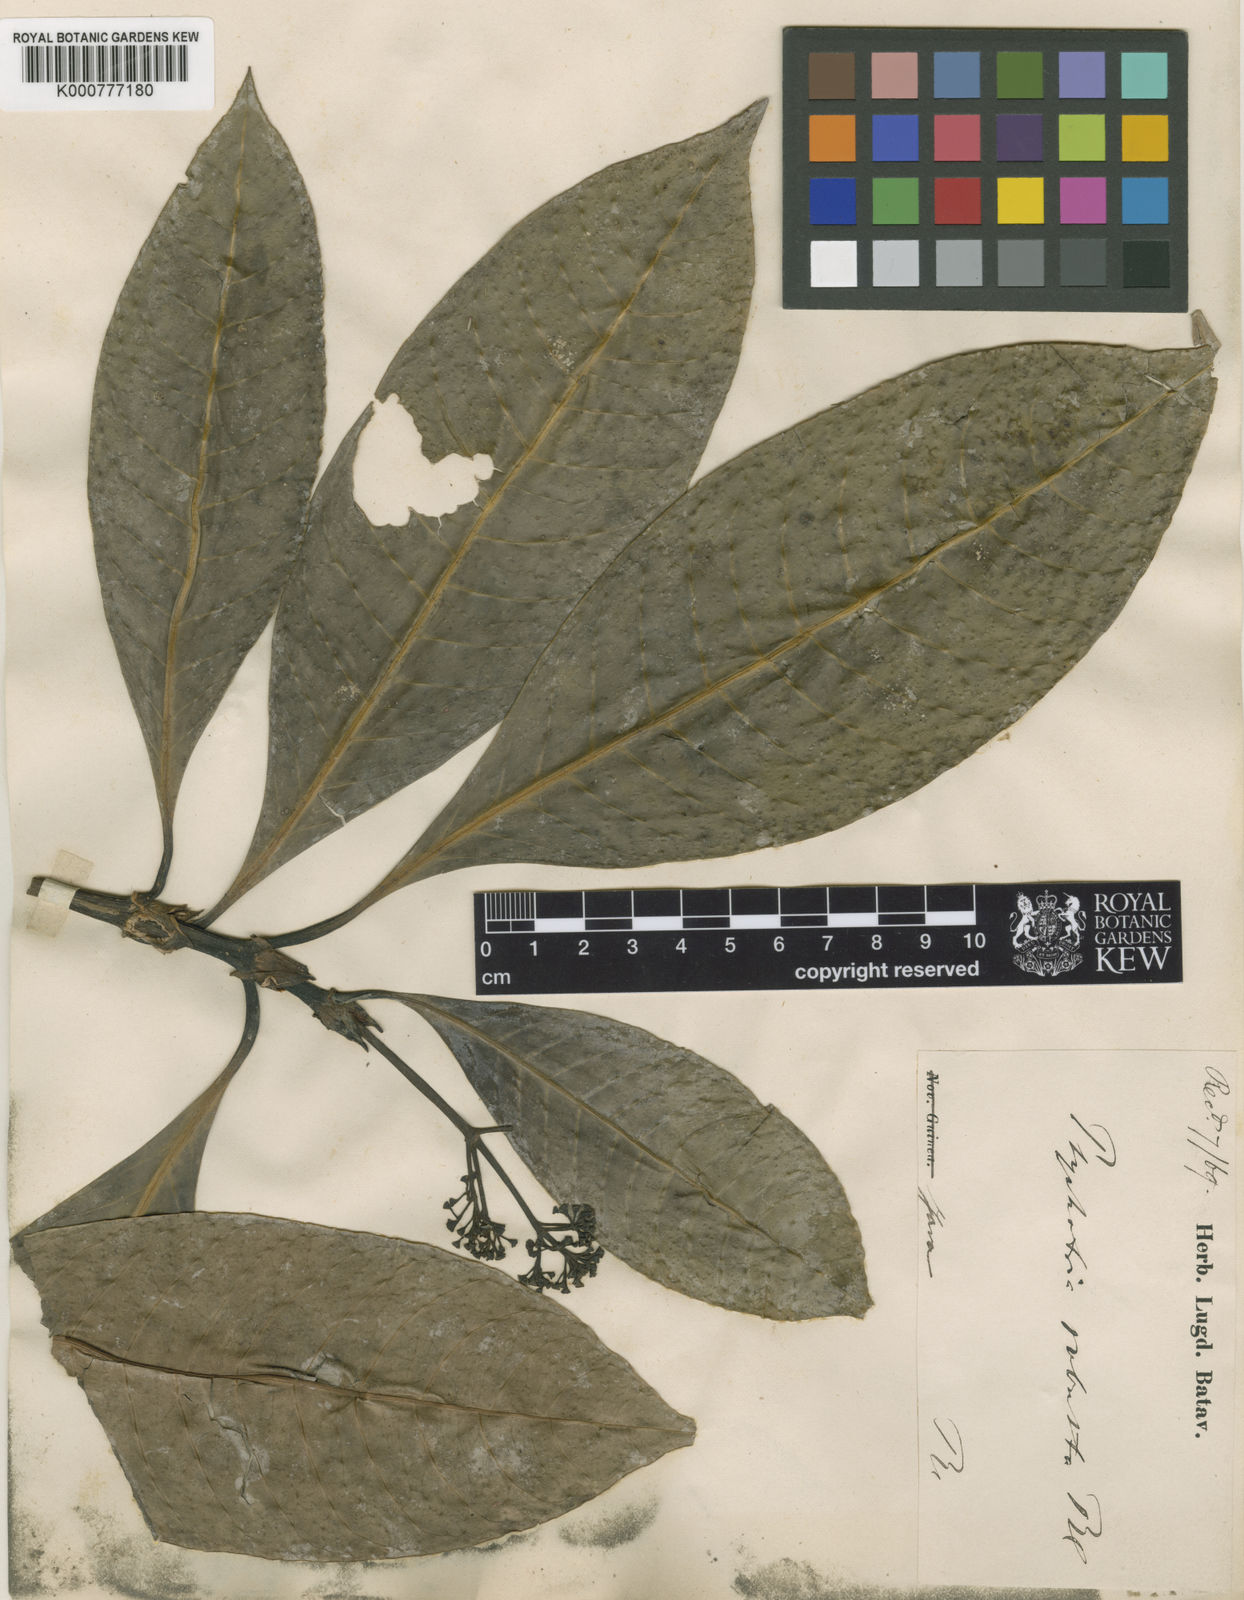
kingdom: Plantae
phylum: Tracheophyta
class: Magnoliopsida
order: Gentianales
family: Rubiaceae
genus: Psychotria
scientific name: Psychotria robusta
